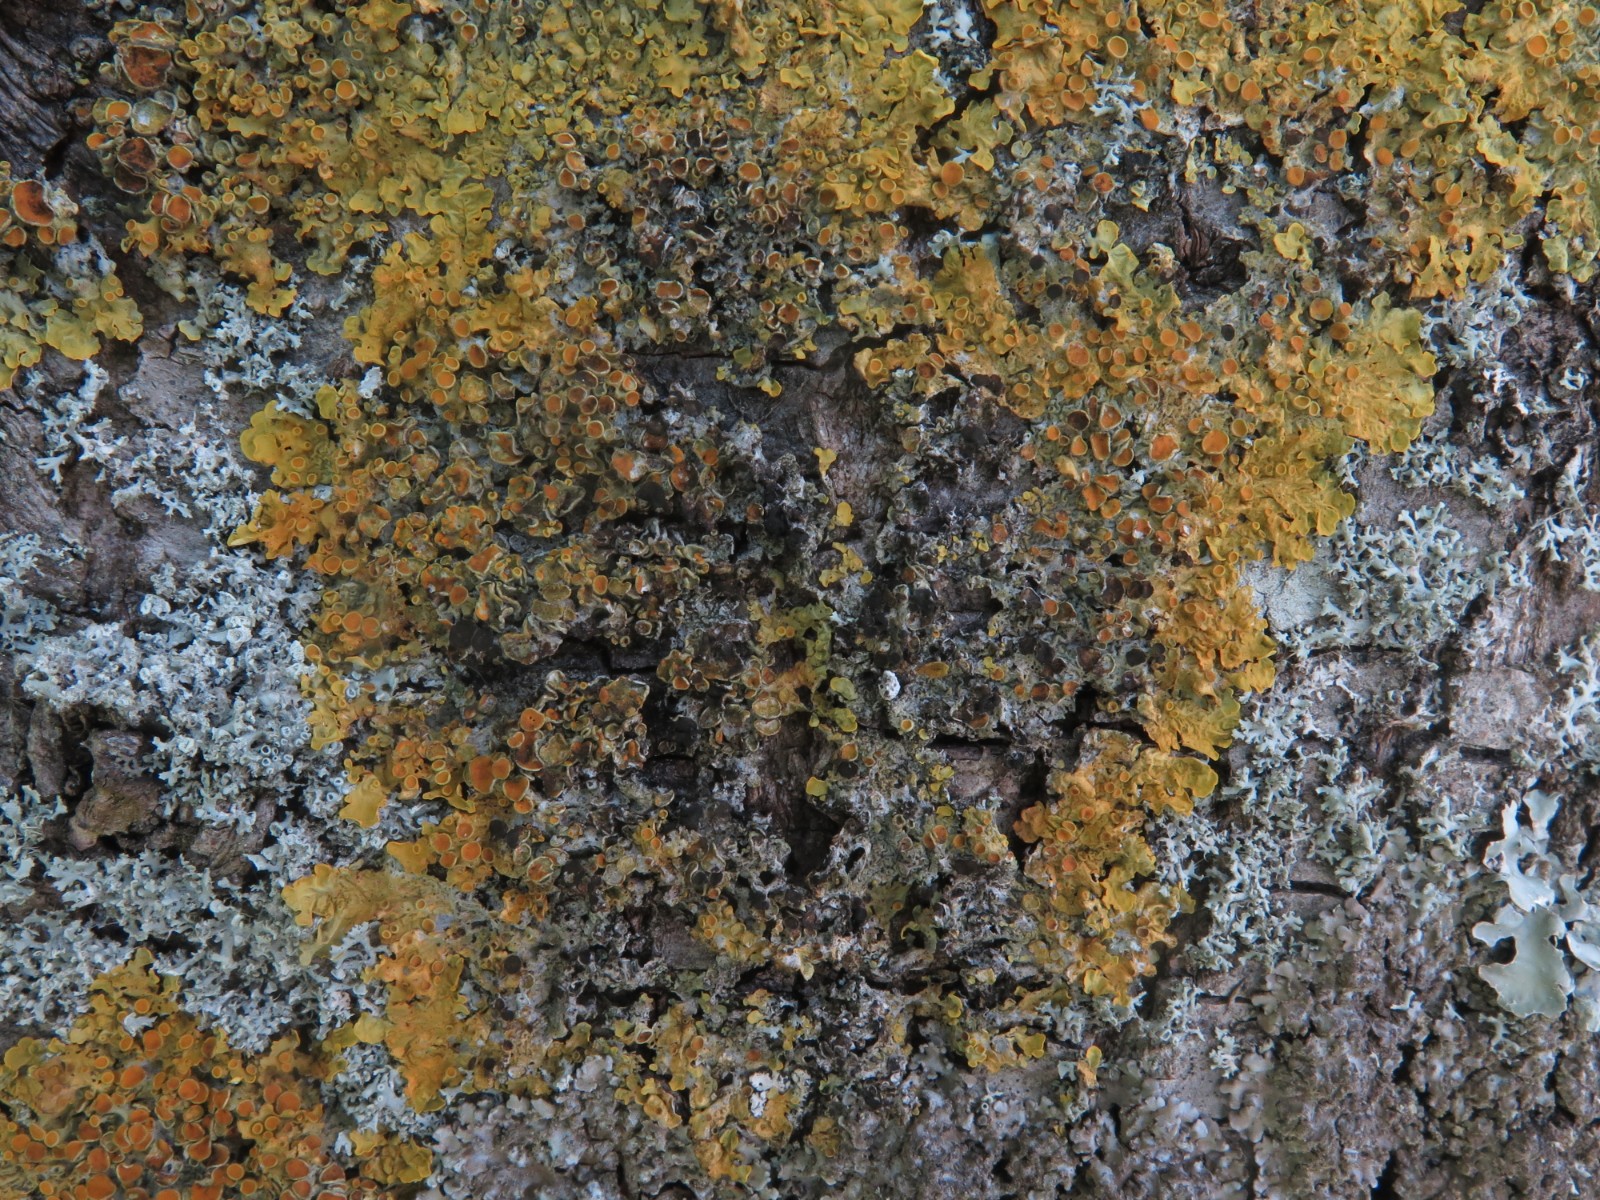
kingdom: Fungi
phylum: Ascomycota
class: Dothideomycetes
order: Mycosphaerellales
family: Teratosphaeriaceae
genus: Xanthoriicola
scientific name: Xanthoriicola physciae
